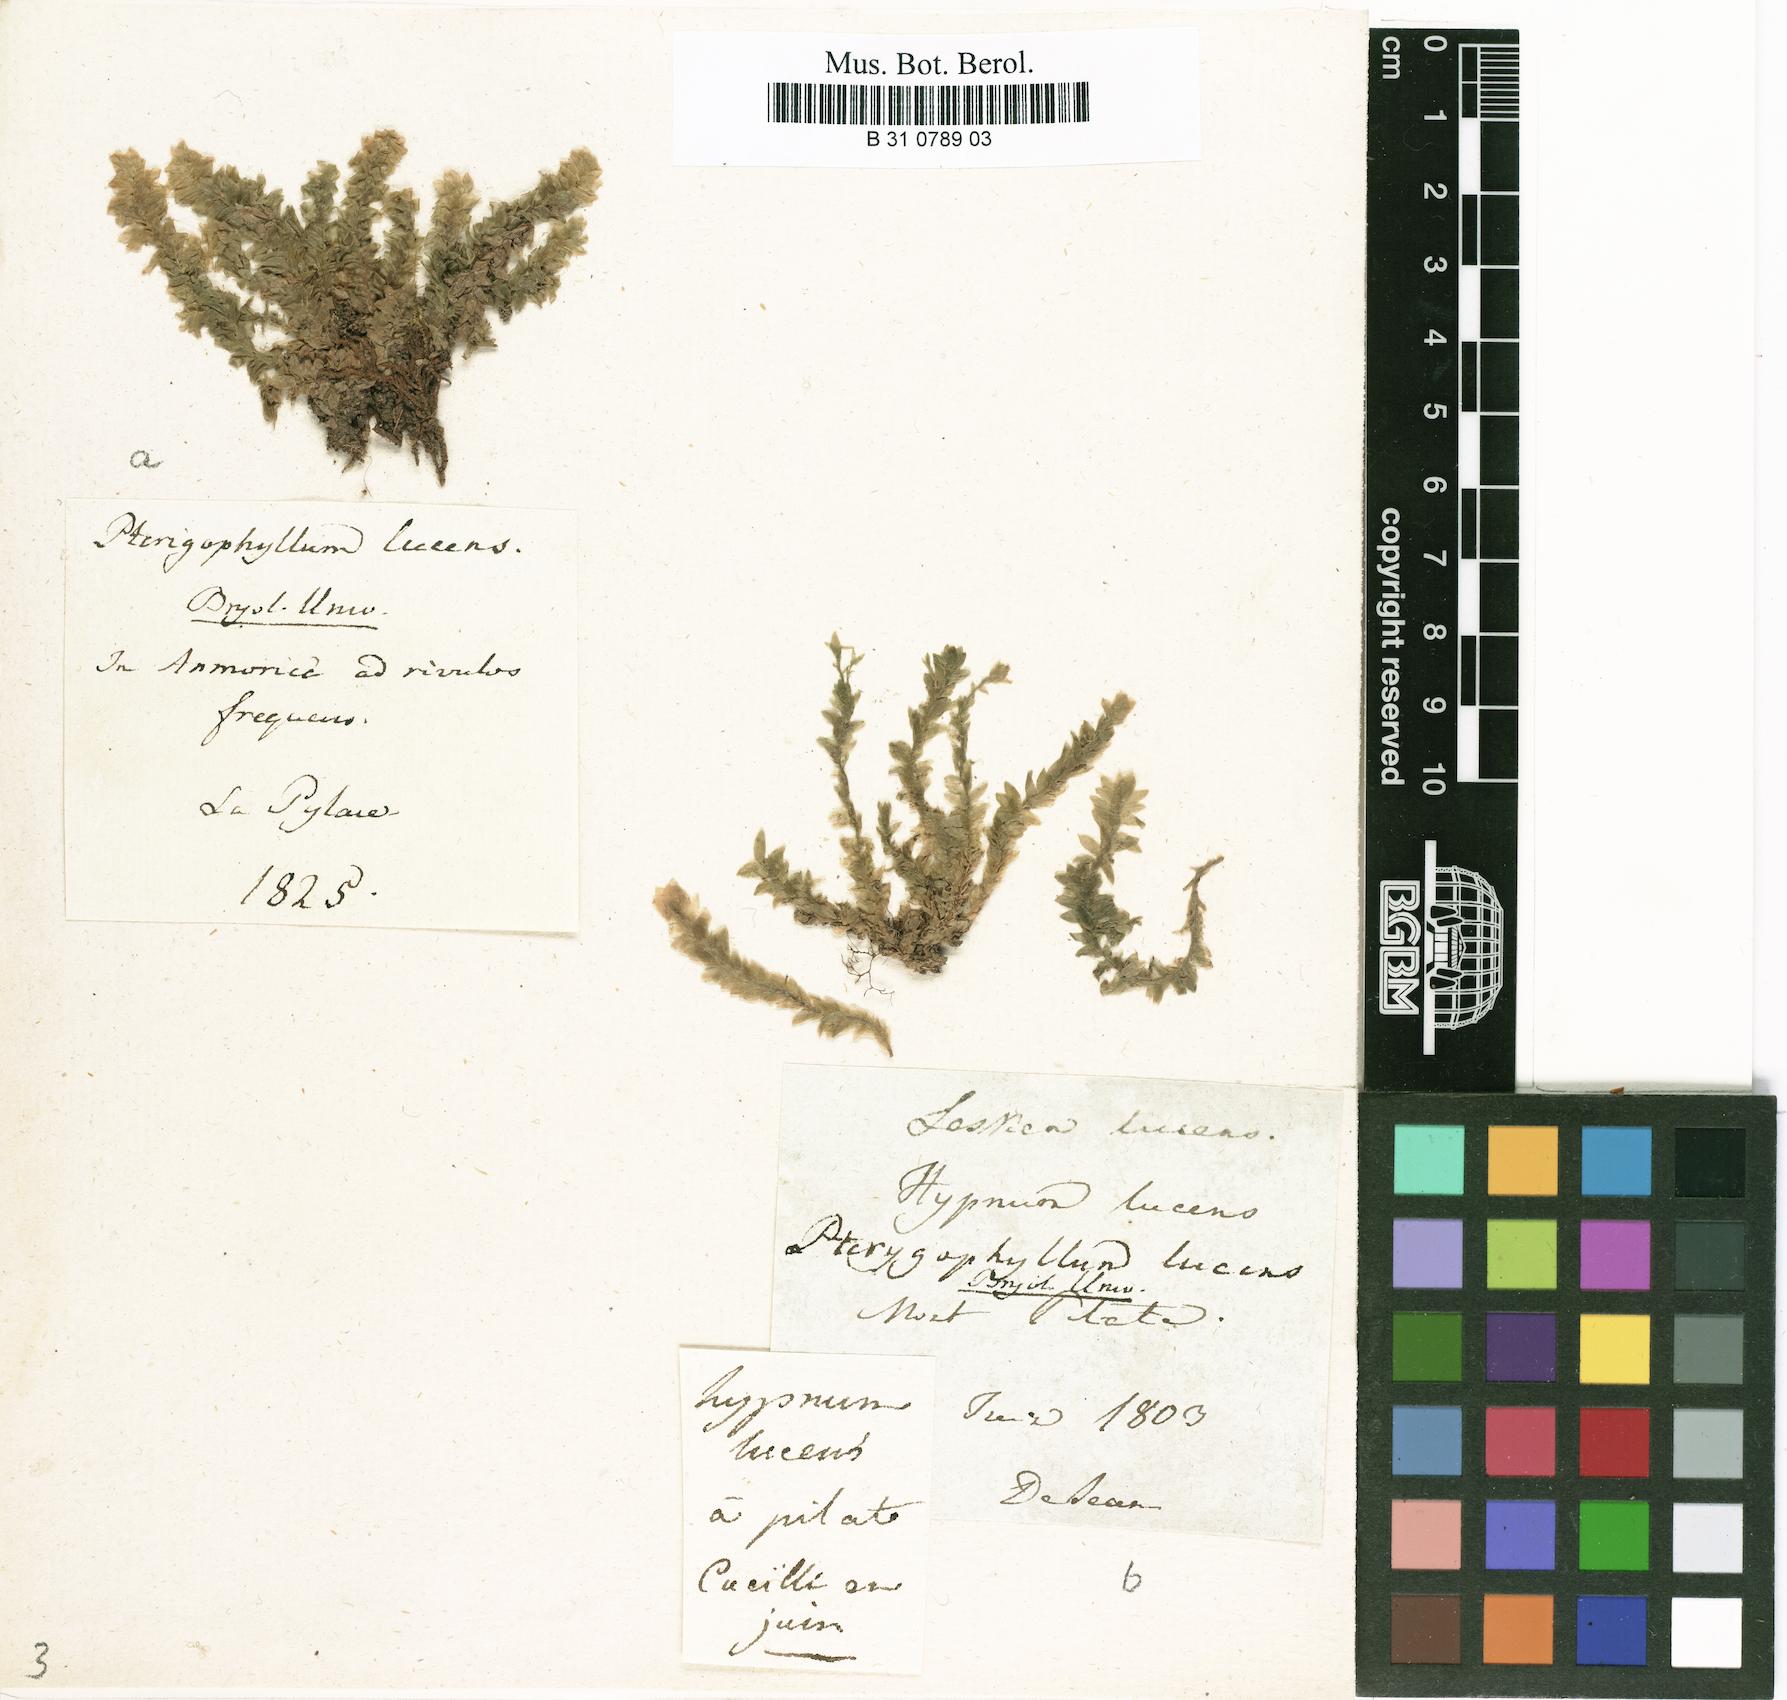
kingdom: Plantae
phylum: Bryophyta
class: Bryopsida
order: Hookeriales
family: Hookeriaceae
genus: Hookeria
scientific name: Hookeria lucens
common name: Shining hookeria
